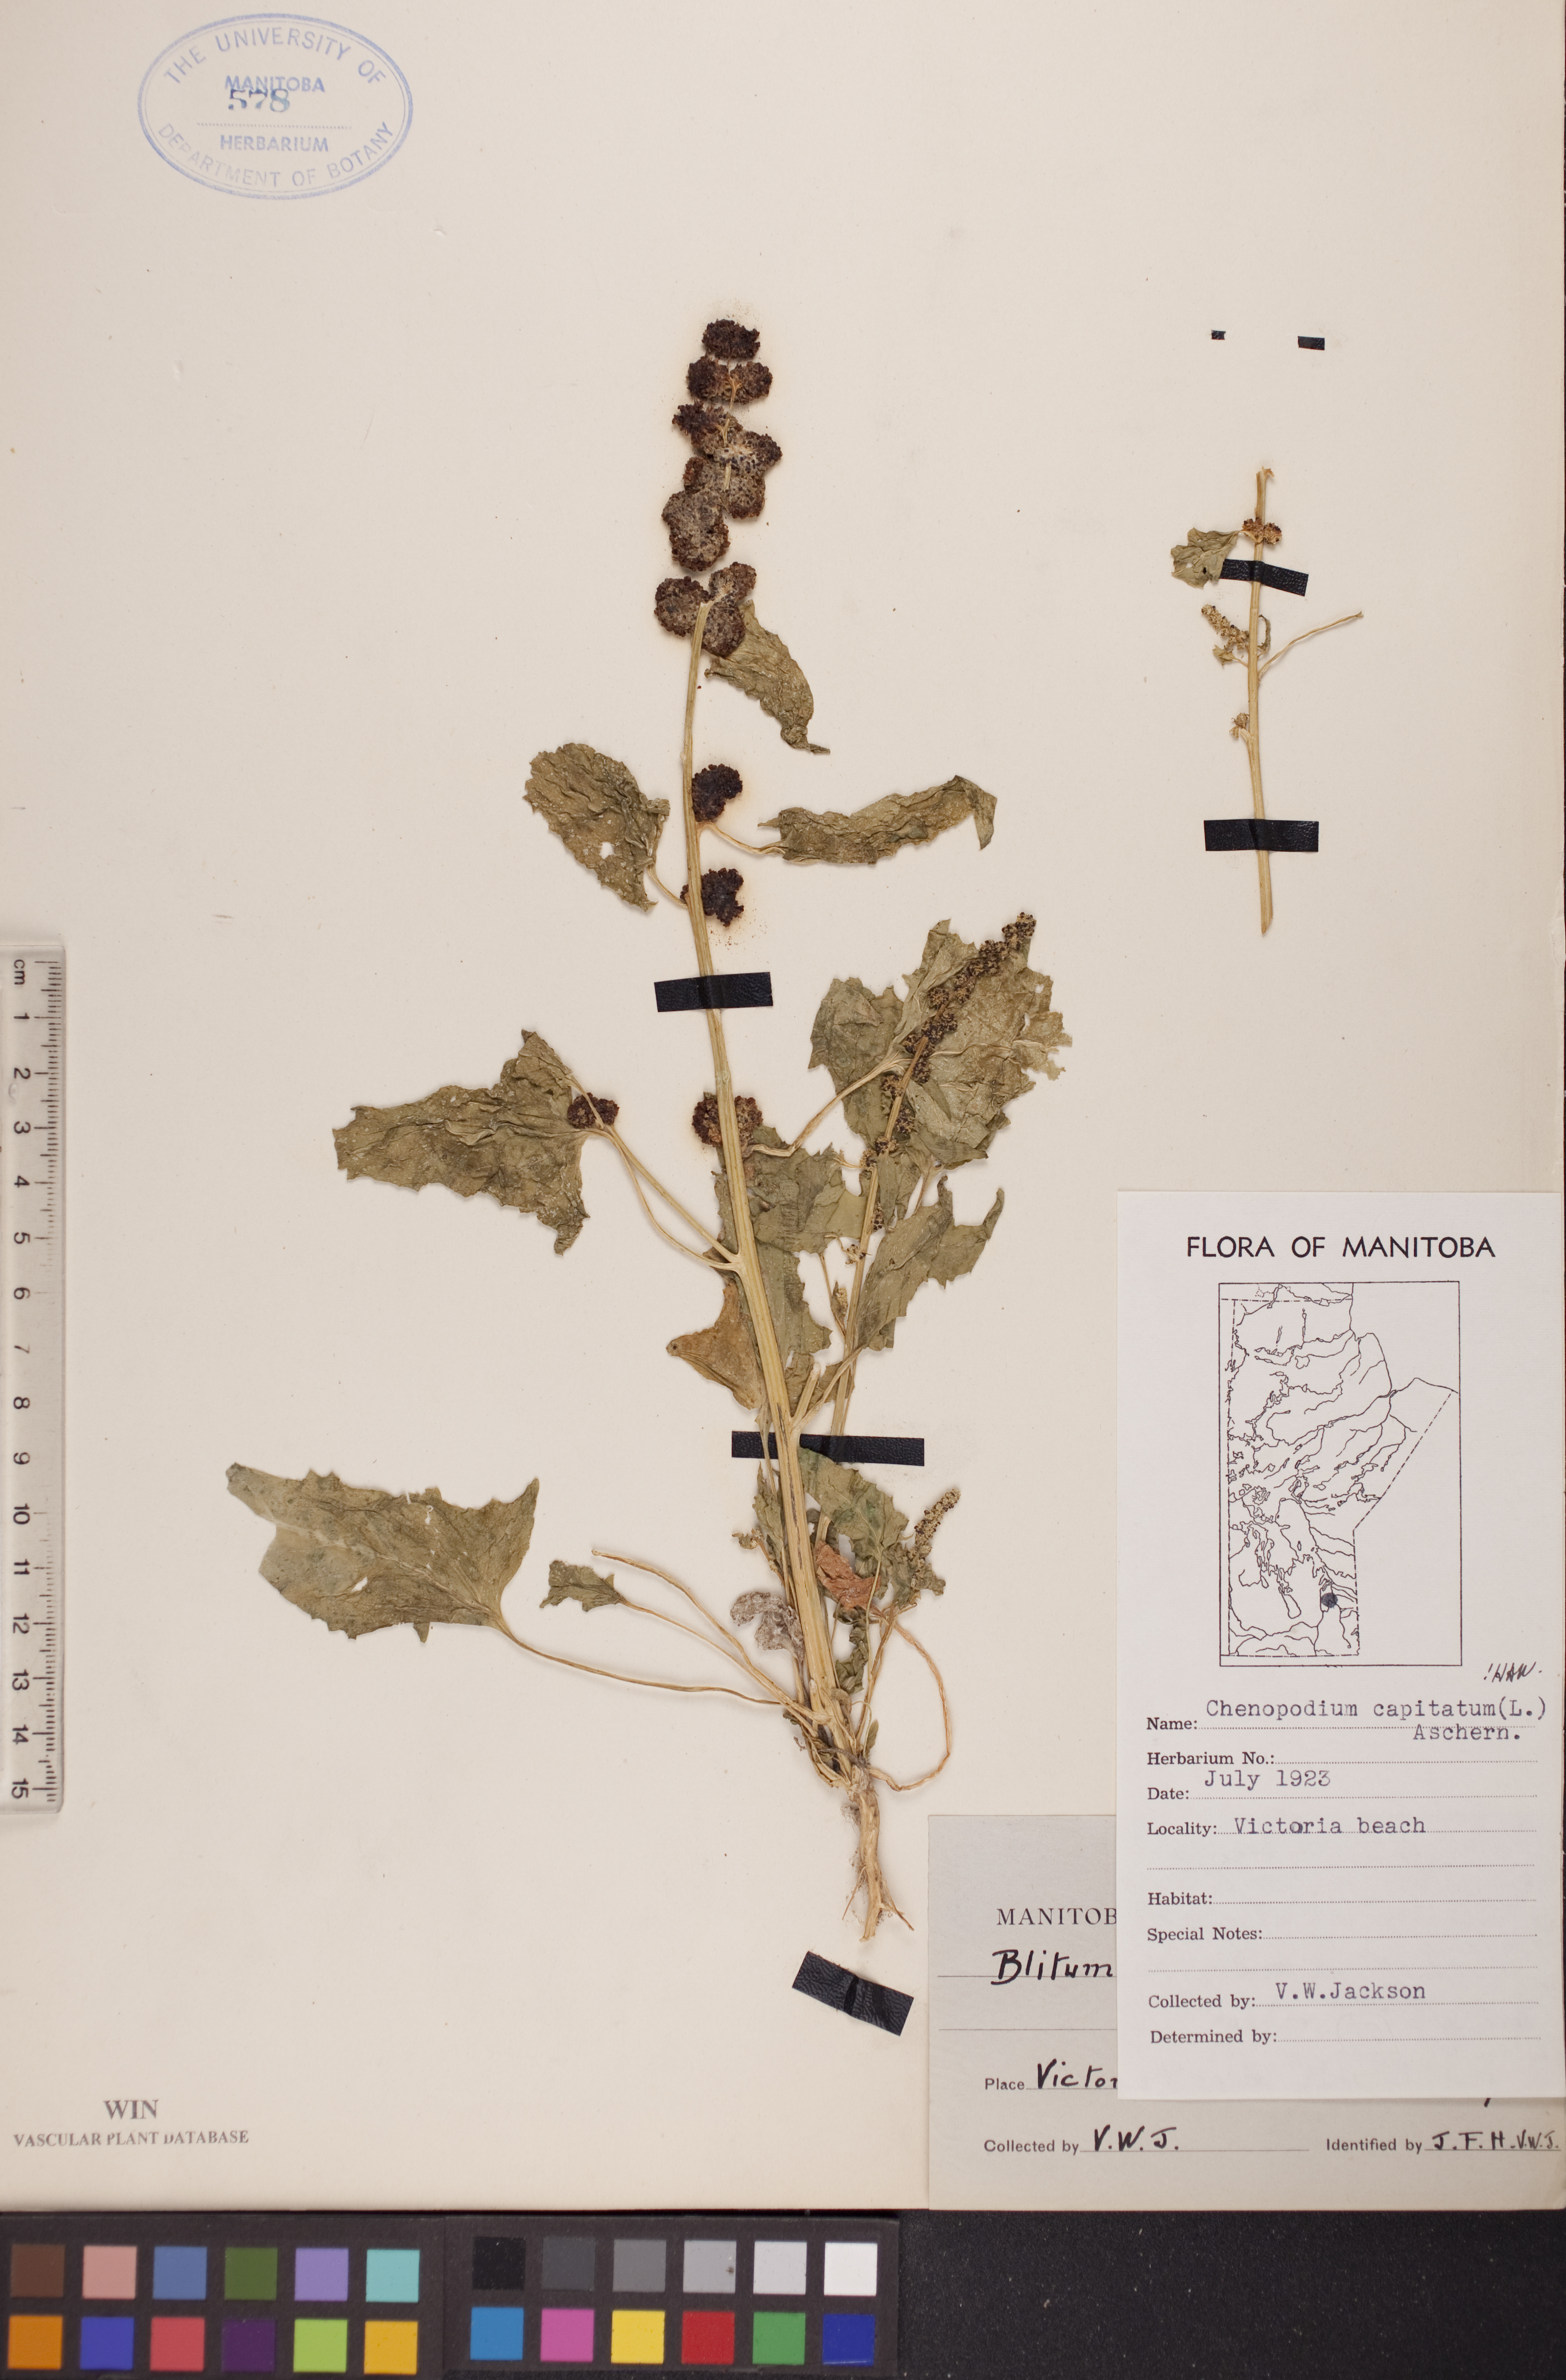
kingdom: Plantae
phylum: Tracheophyta
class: Magnoliopsida
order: Caryophyllales
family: Amaranthaceae
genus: Blitum
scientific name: Blitum capitatum
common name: Strawberry-blight
